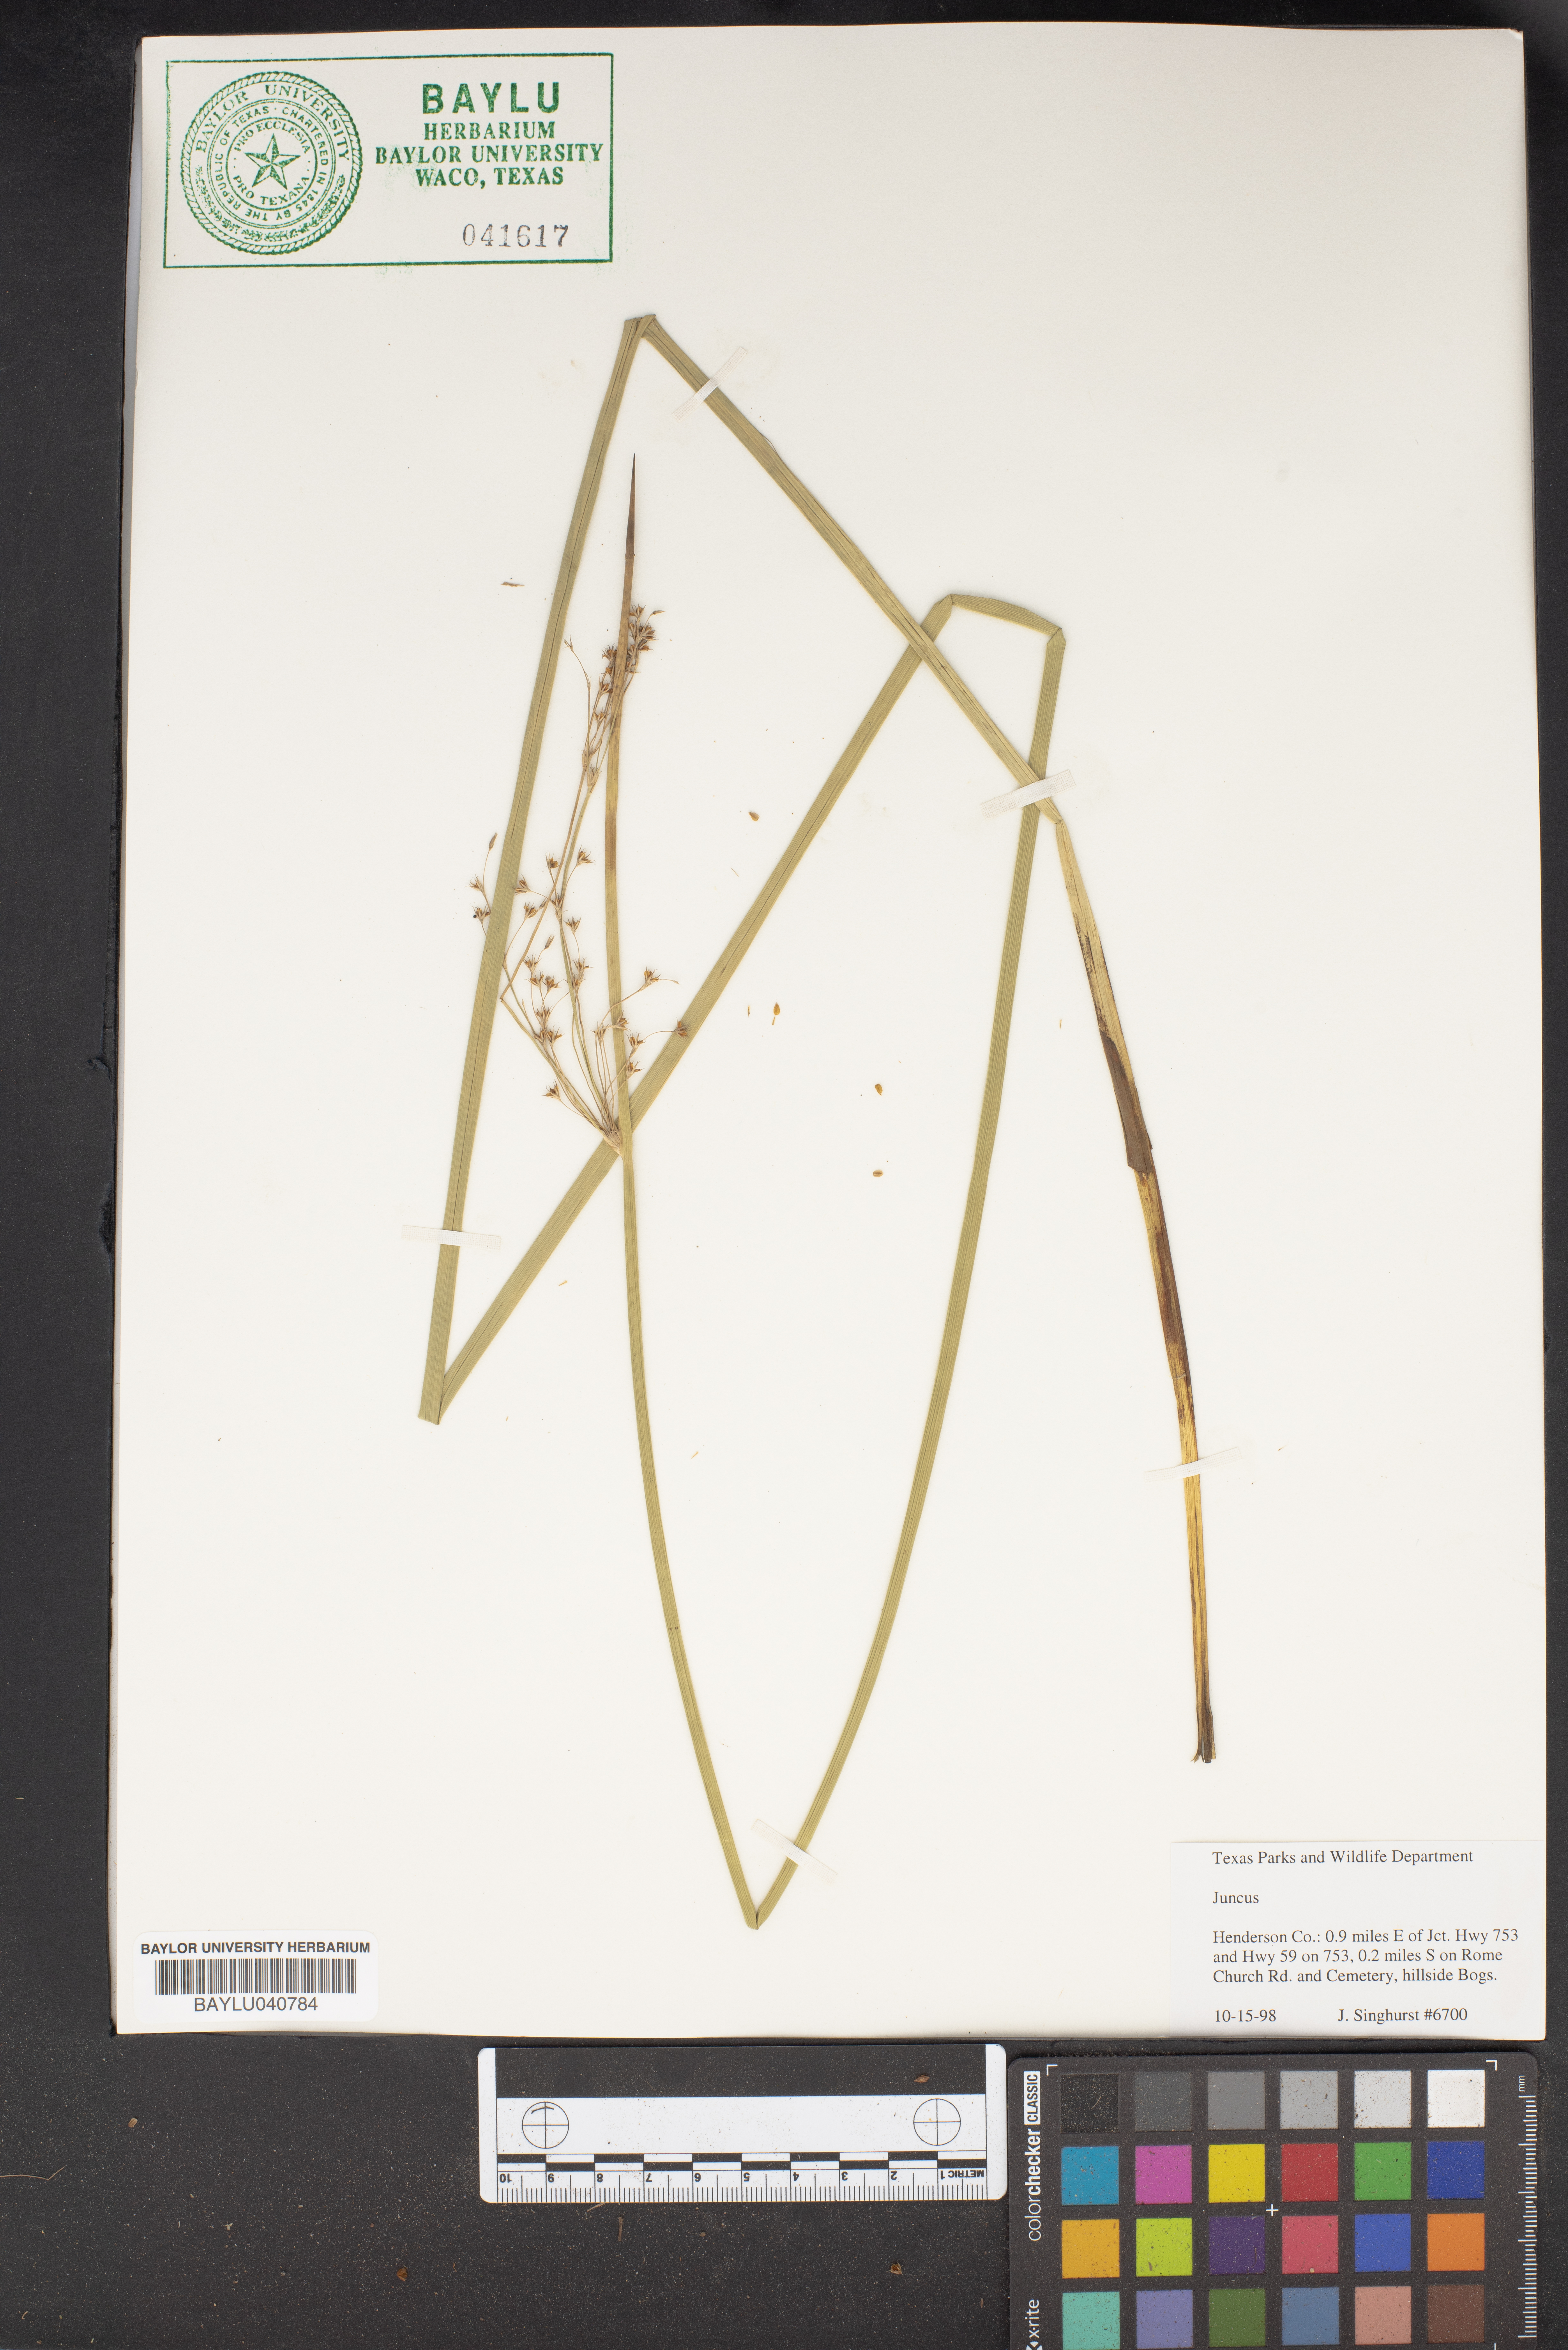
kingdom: Plantae
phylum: Tracheophyta
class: Liliopsida
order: Poales
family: Juncaceae
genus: Juncus
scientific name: Juncus
